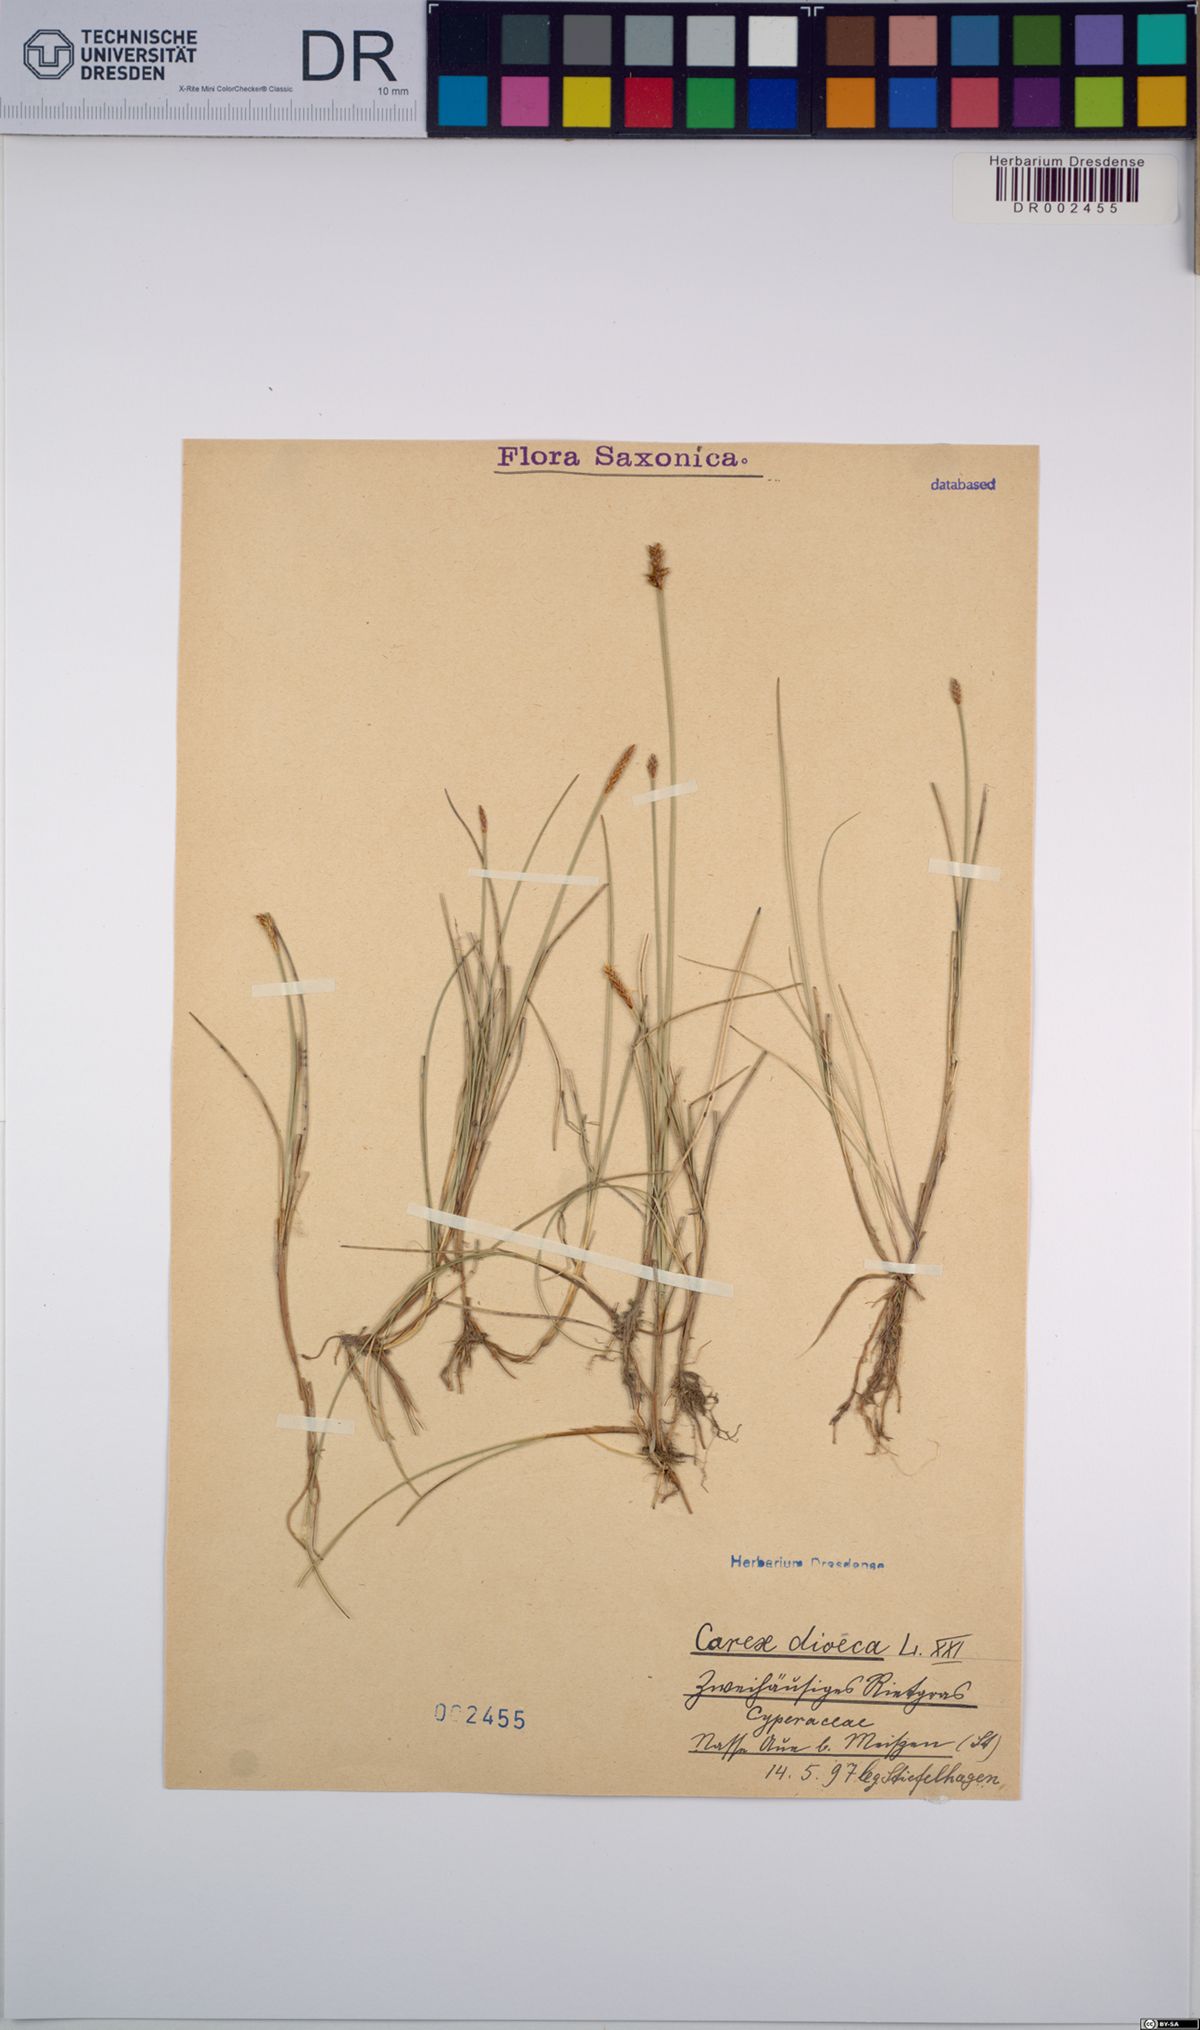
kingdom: Plantae
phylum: Tracheophyta
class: Liliopsida
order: Poales
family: Cyperaceae
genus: Carex
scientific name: Carex dioica
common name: Dioecious sedge
